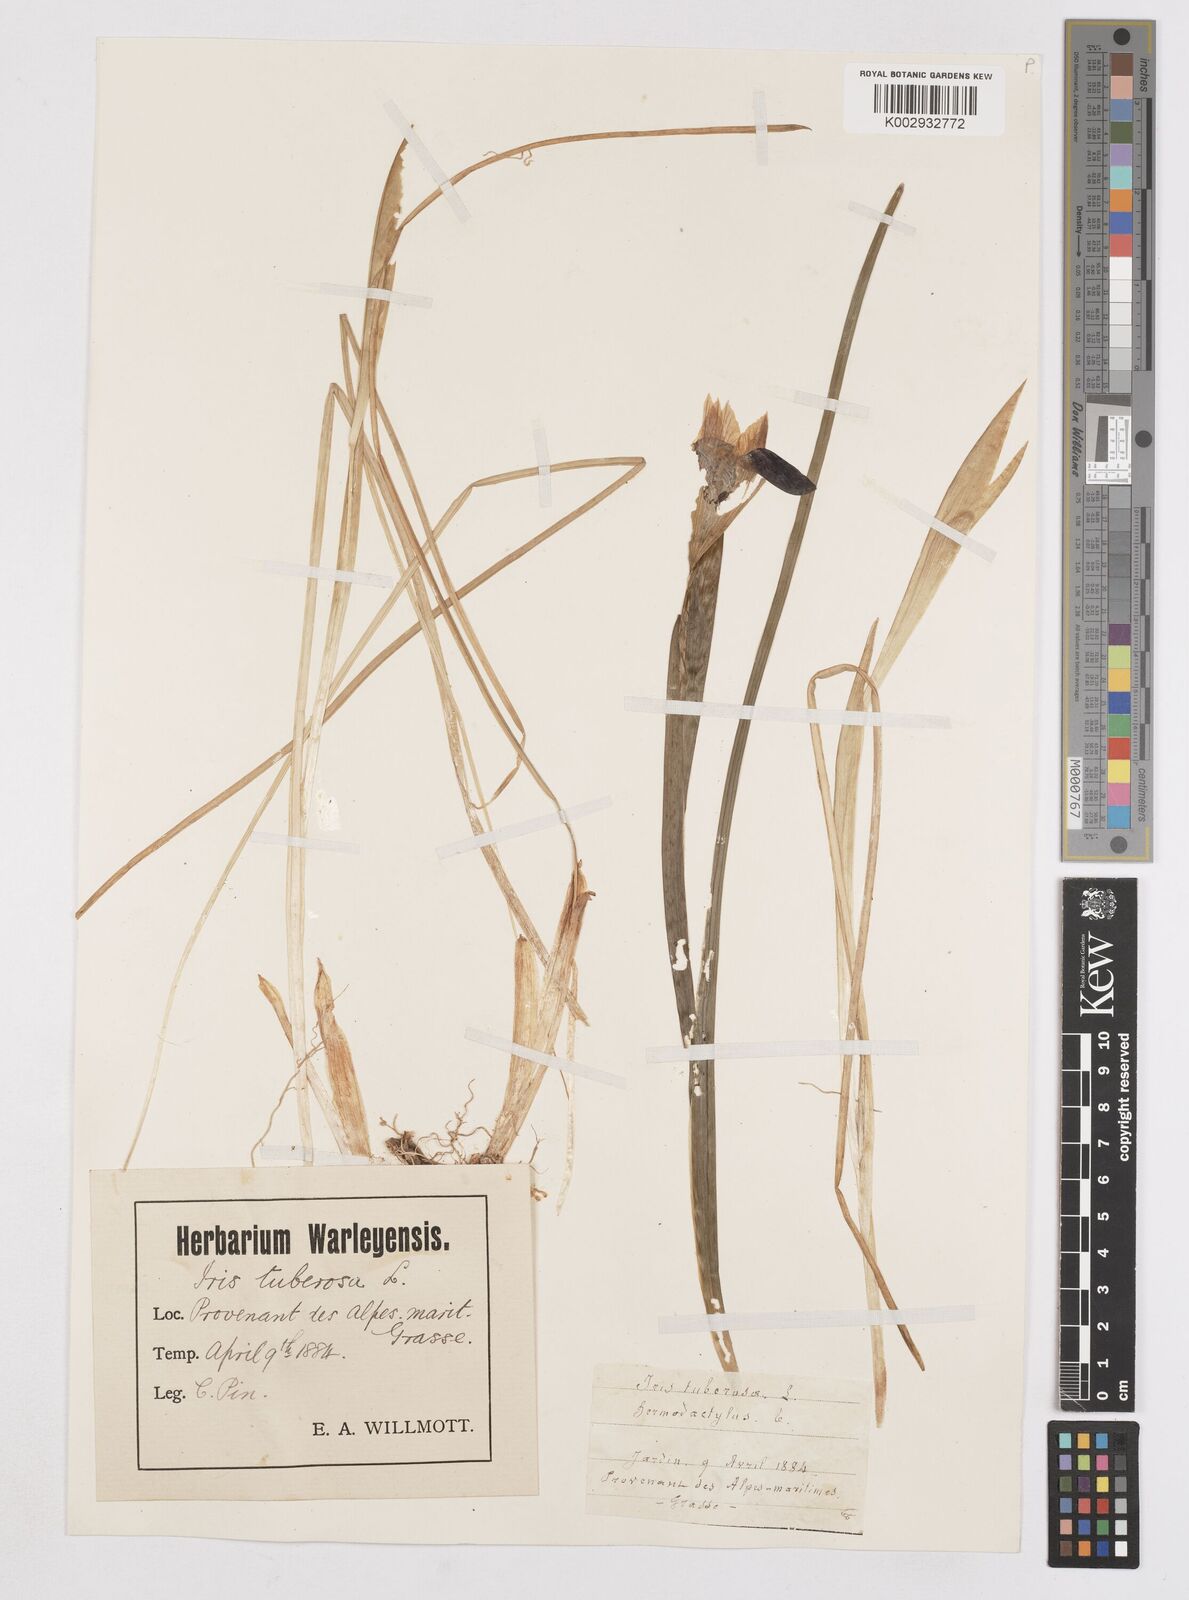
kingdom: Plantae
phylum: Tracheophyta
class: Liliopsida
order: Asparagales
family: Iridaceae
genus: Iris
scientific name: Iris tuberosa
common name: Snake's-head iris
